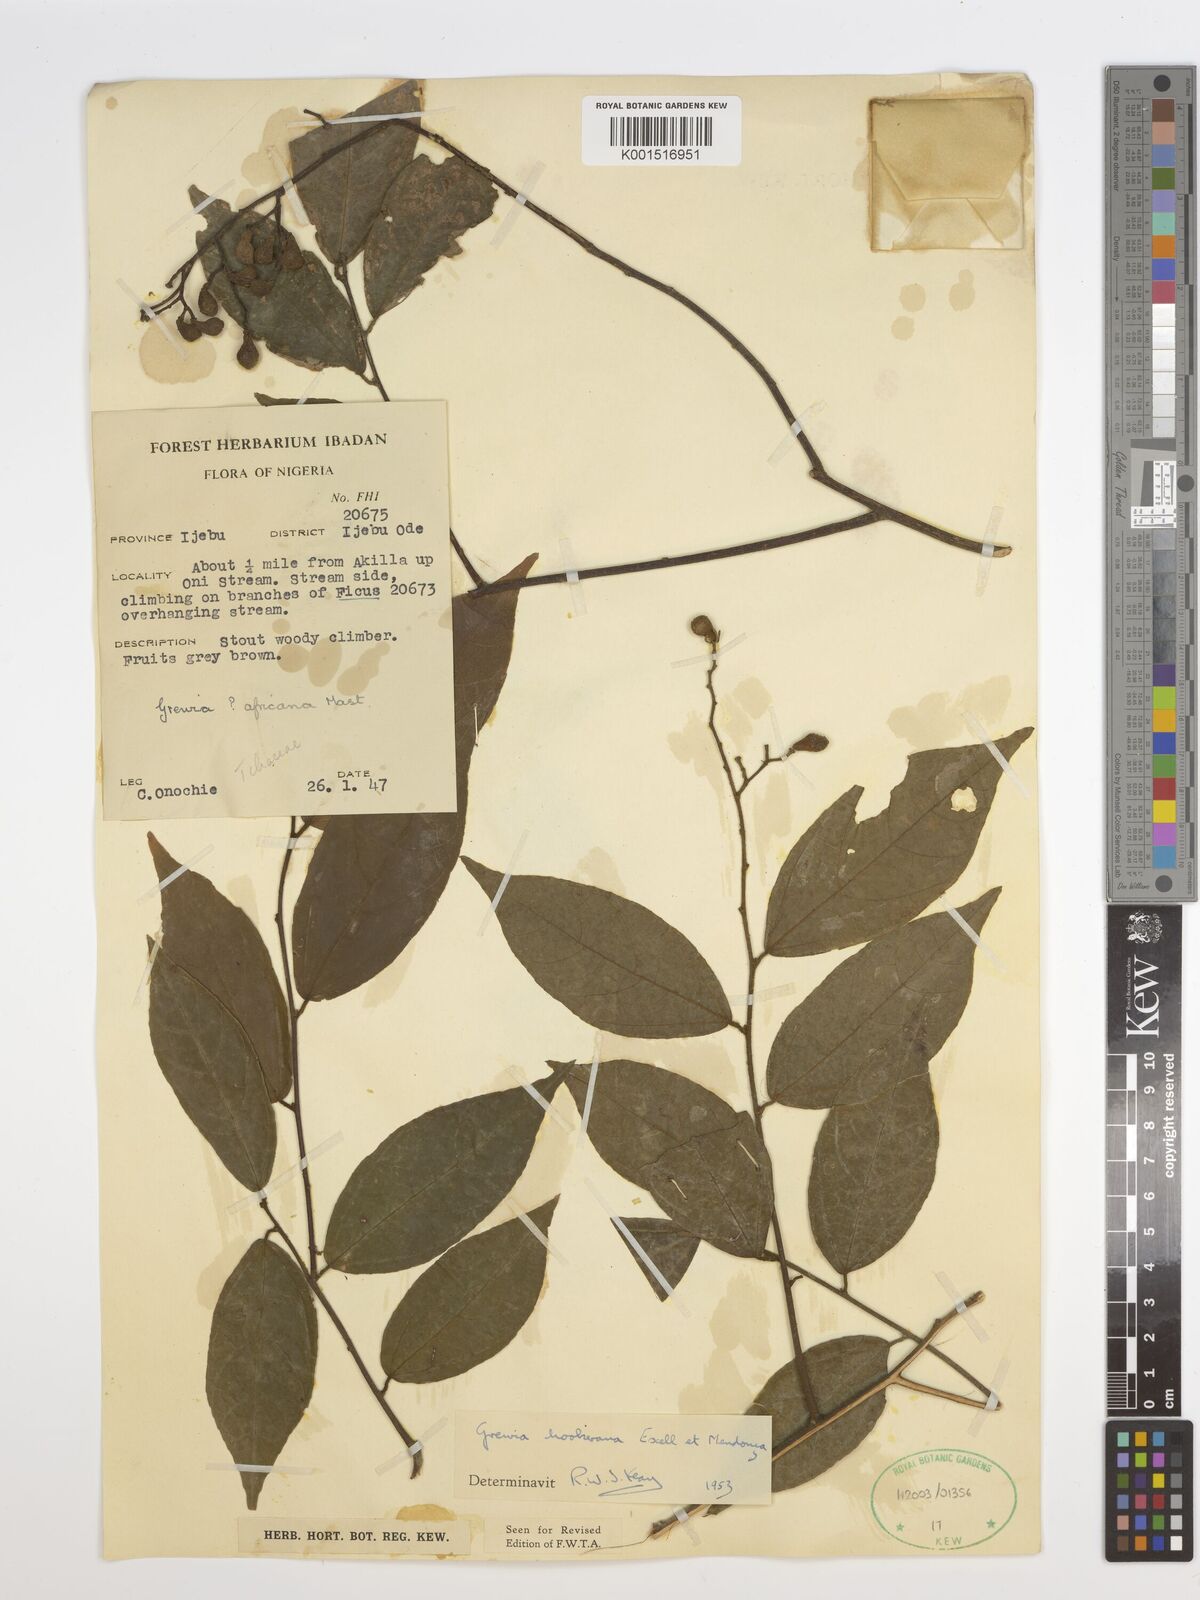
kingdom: Plantae
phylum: Tracheophyta
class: Magnoliopsida
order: Malvales
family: Malvaceae
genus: Microcos
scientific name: Microcos africana
